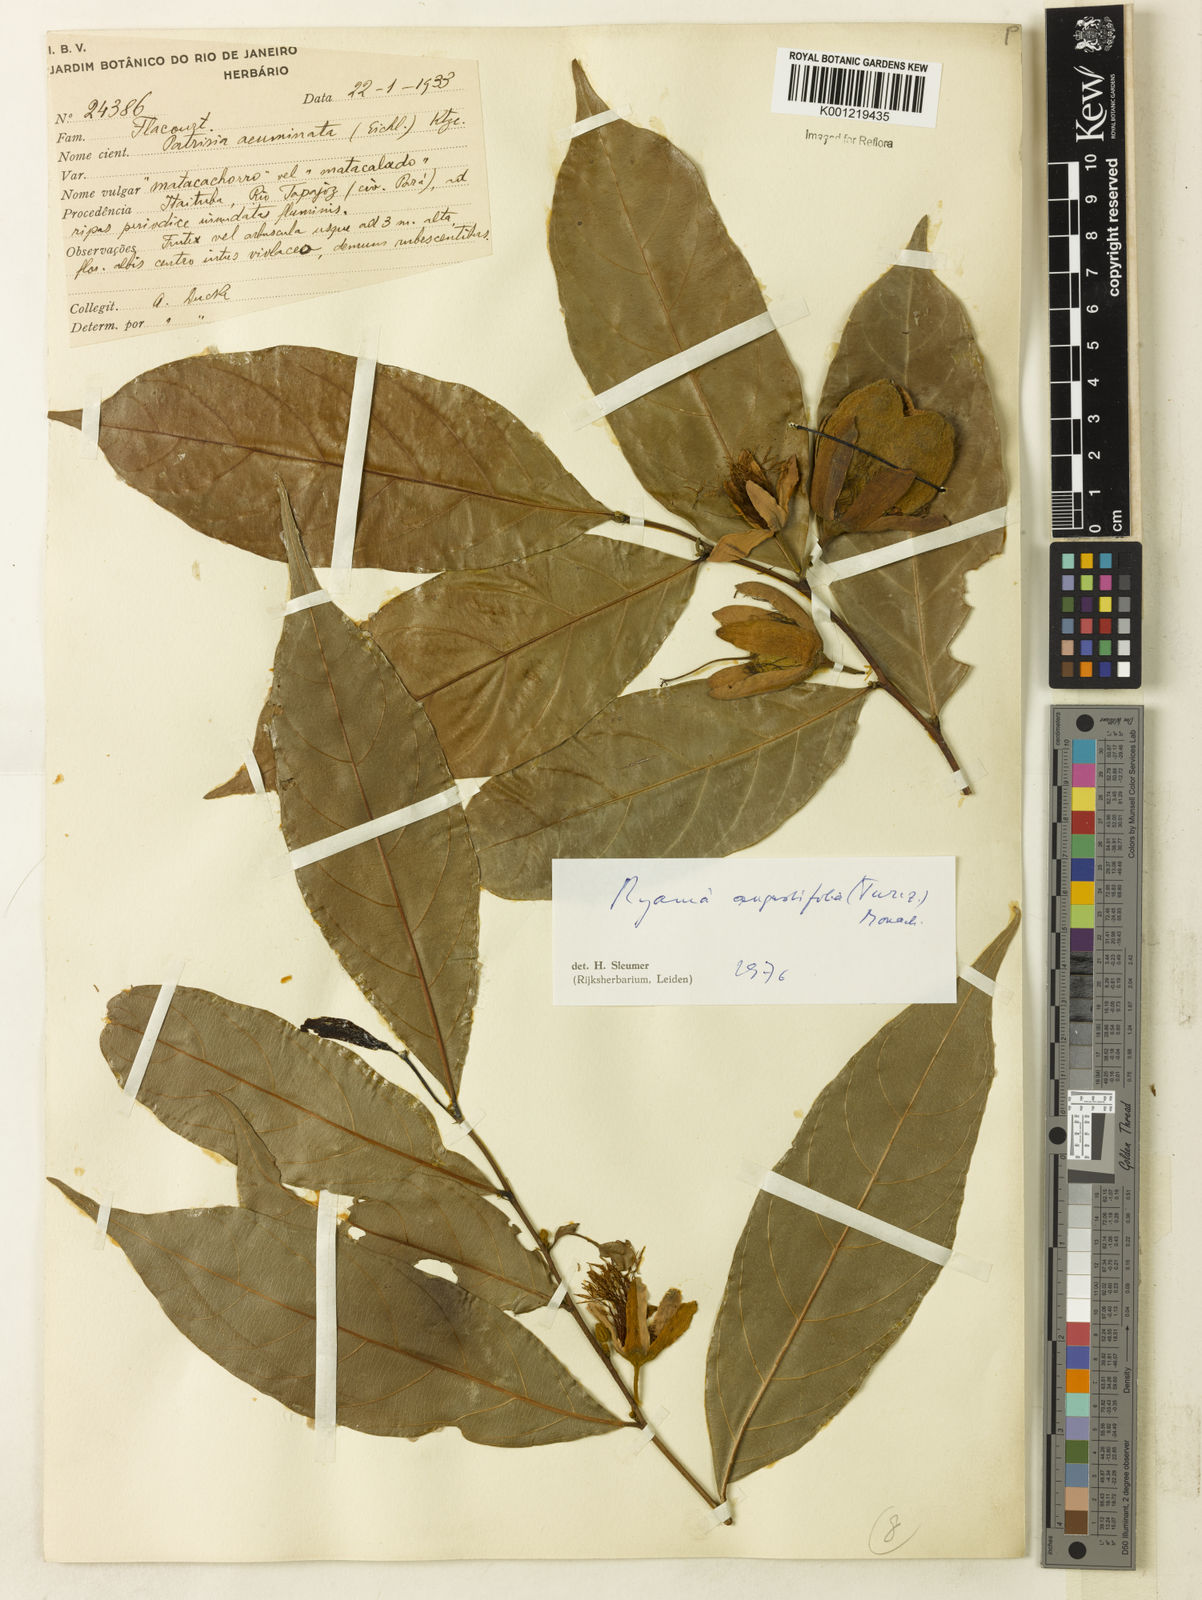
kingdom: Plantae
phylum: Tracheophyta
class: Magnoliopsida
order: Malpighiales
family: Salicaceae
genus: Ryania
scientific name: Ryania angustifolia
